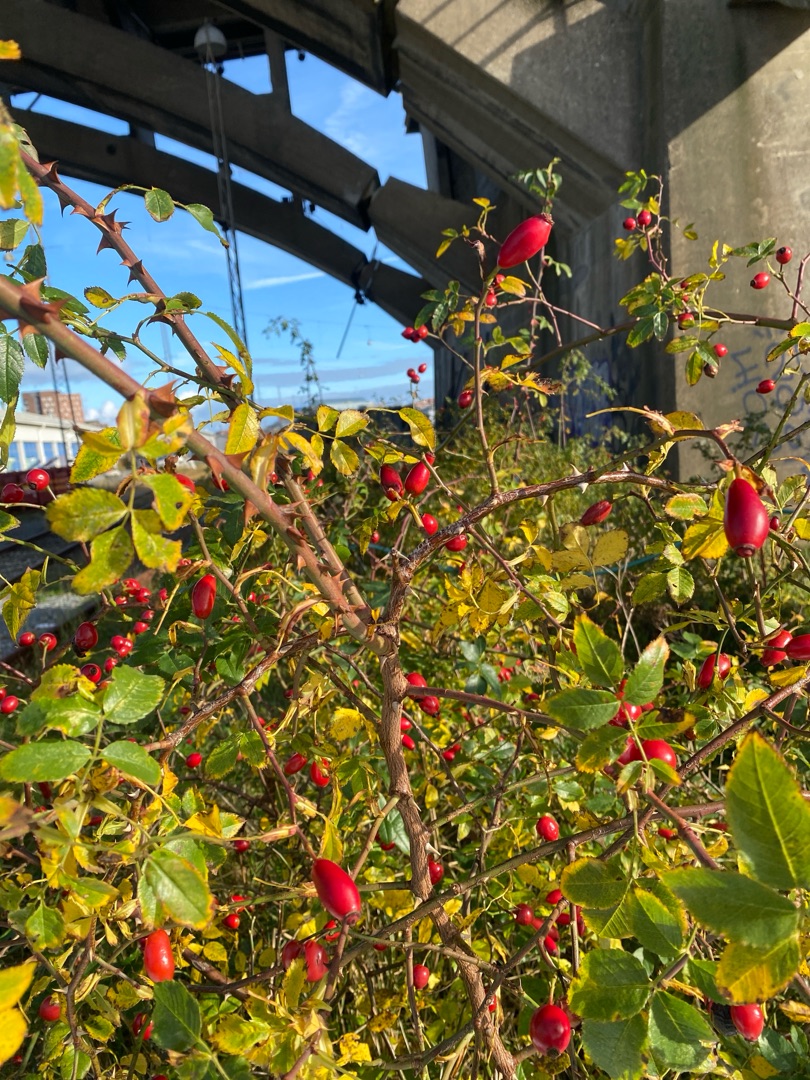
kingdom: Plantae
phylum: Tracheophyta
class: Magnoliopsida
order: Rosales
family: Rosaceae
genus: Rosa
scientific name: Rosa canina
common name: Hunde-rose
